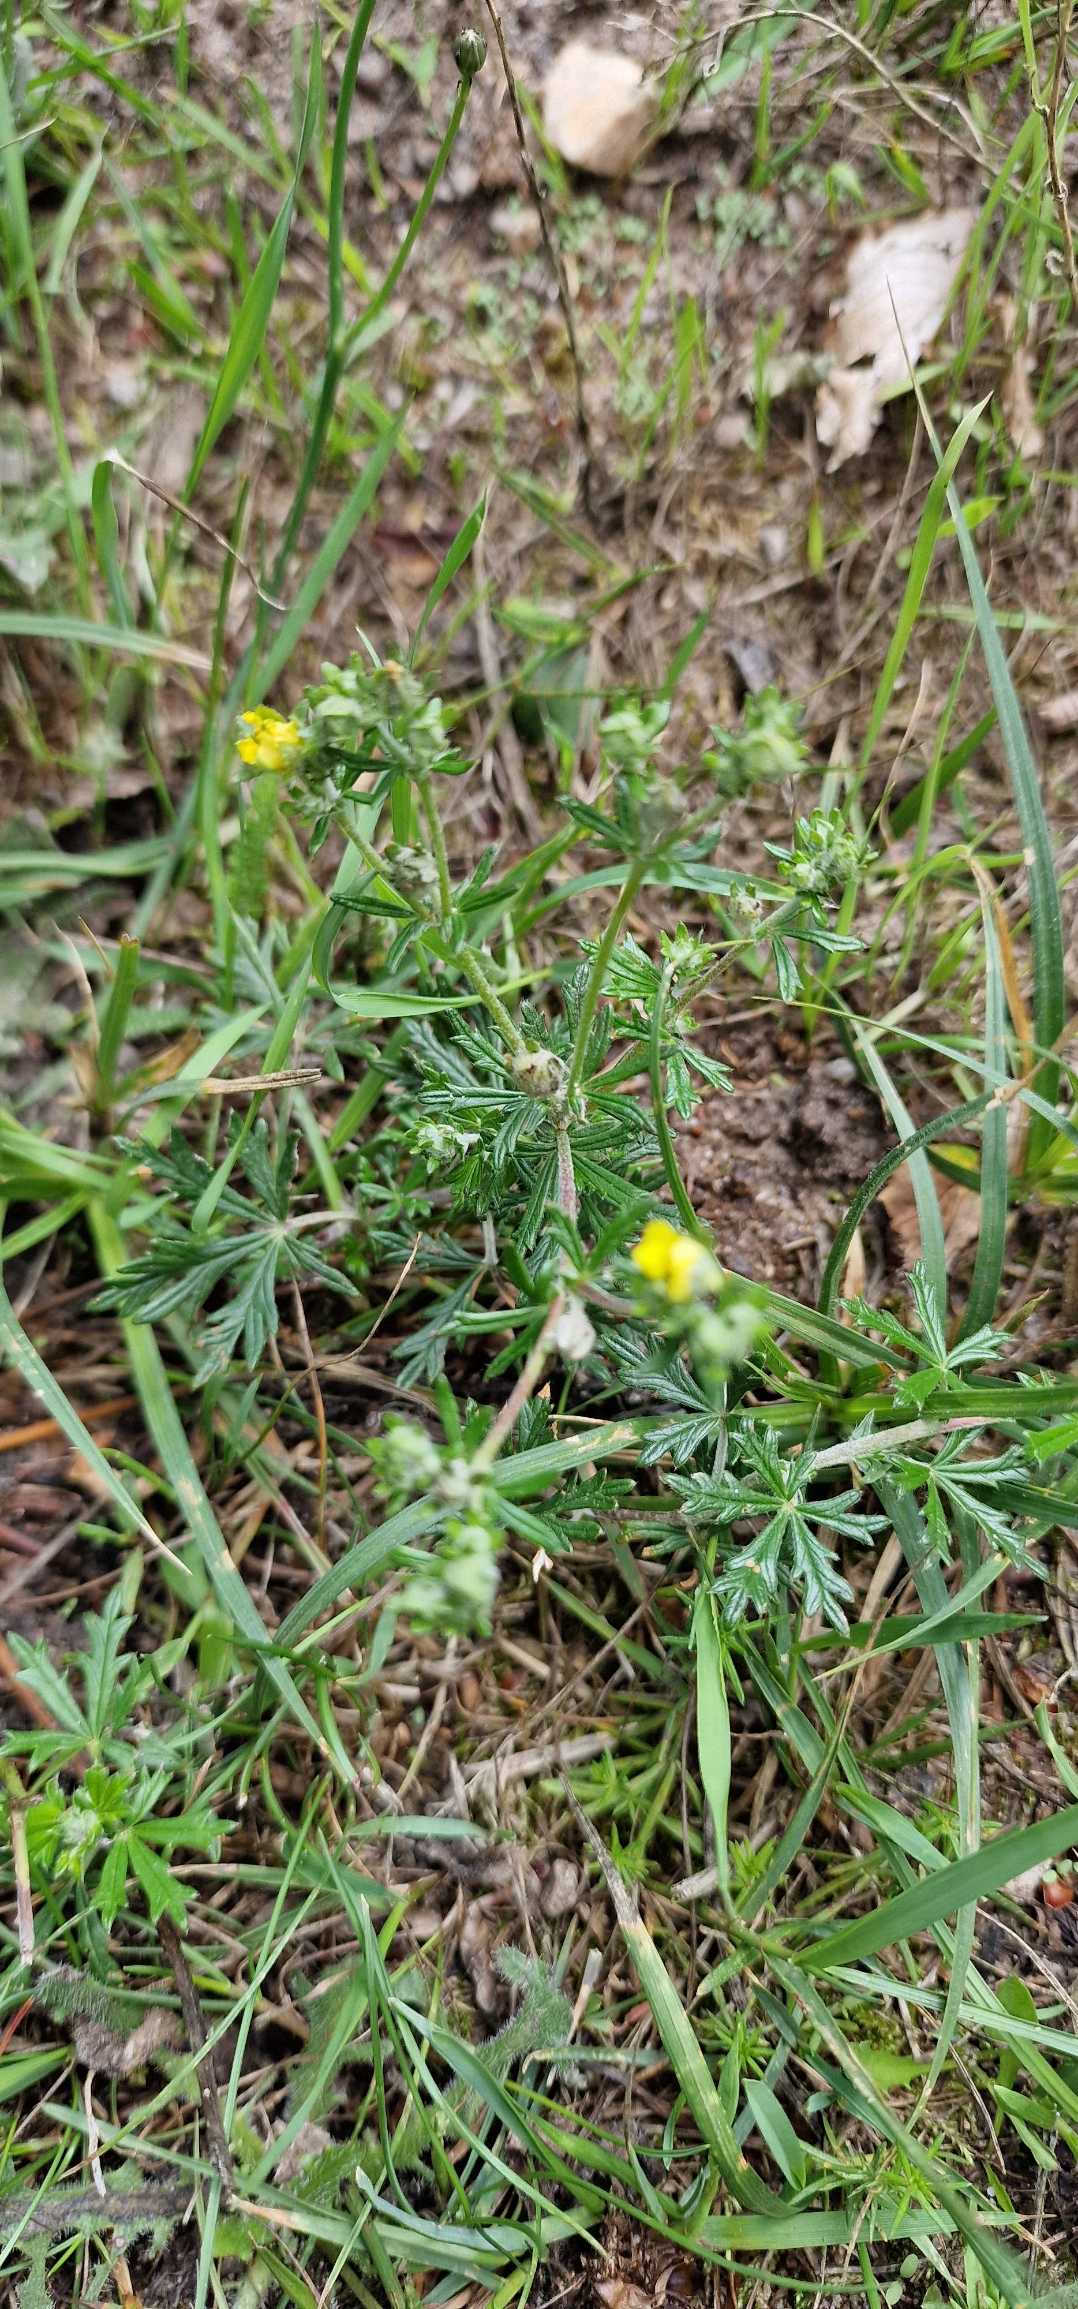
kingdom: Plantae
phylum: Tracheophyta
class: Magnoliopsida
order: Rosales
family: Rosaceae
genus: Potentilla
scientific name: Potentilla argentea
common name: Sølv-potentil
